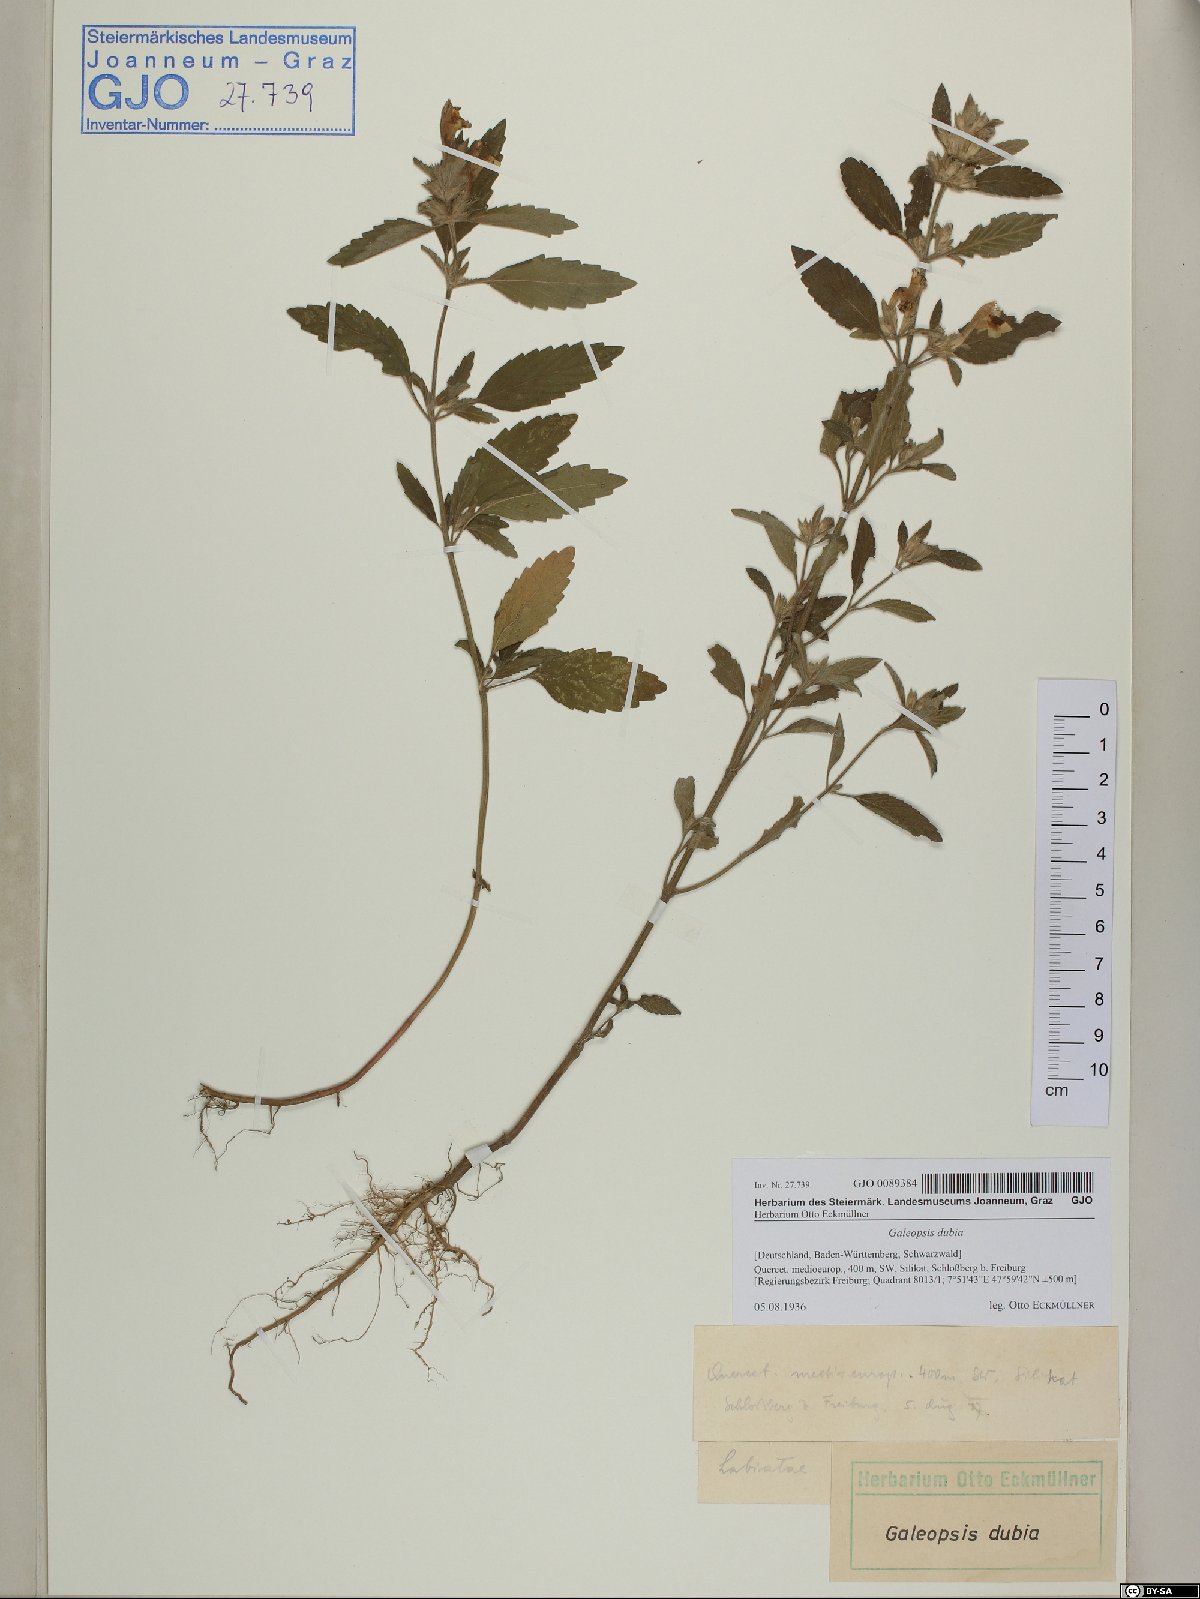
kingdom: Plantae
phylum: Tracheophyta
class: Magnoliopsida
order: Lamiales
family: Lamiaceae
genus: Galeopsis
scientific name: Galeopsis segetum
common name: Downy hemp-nettle
